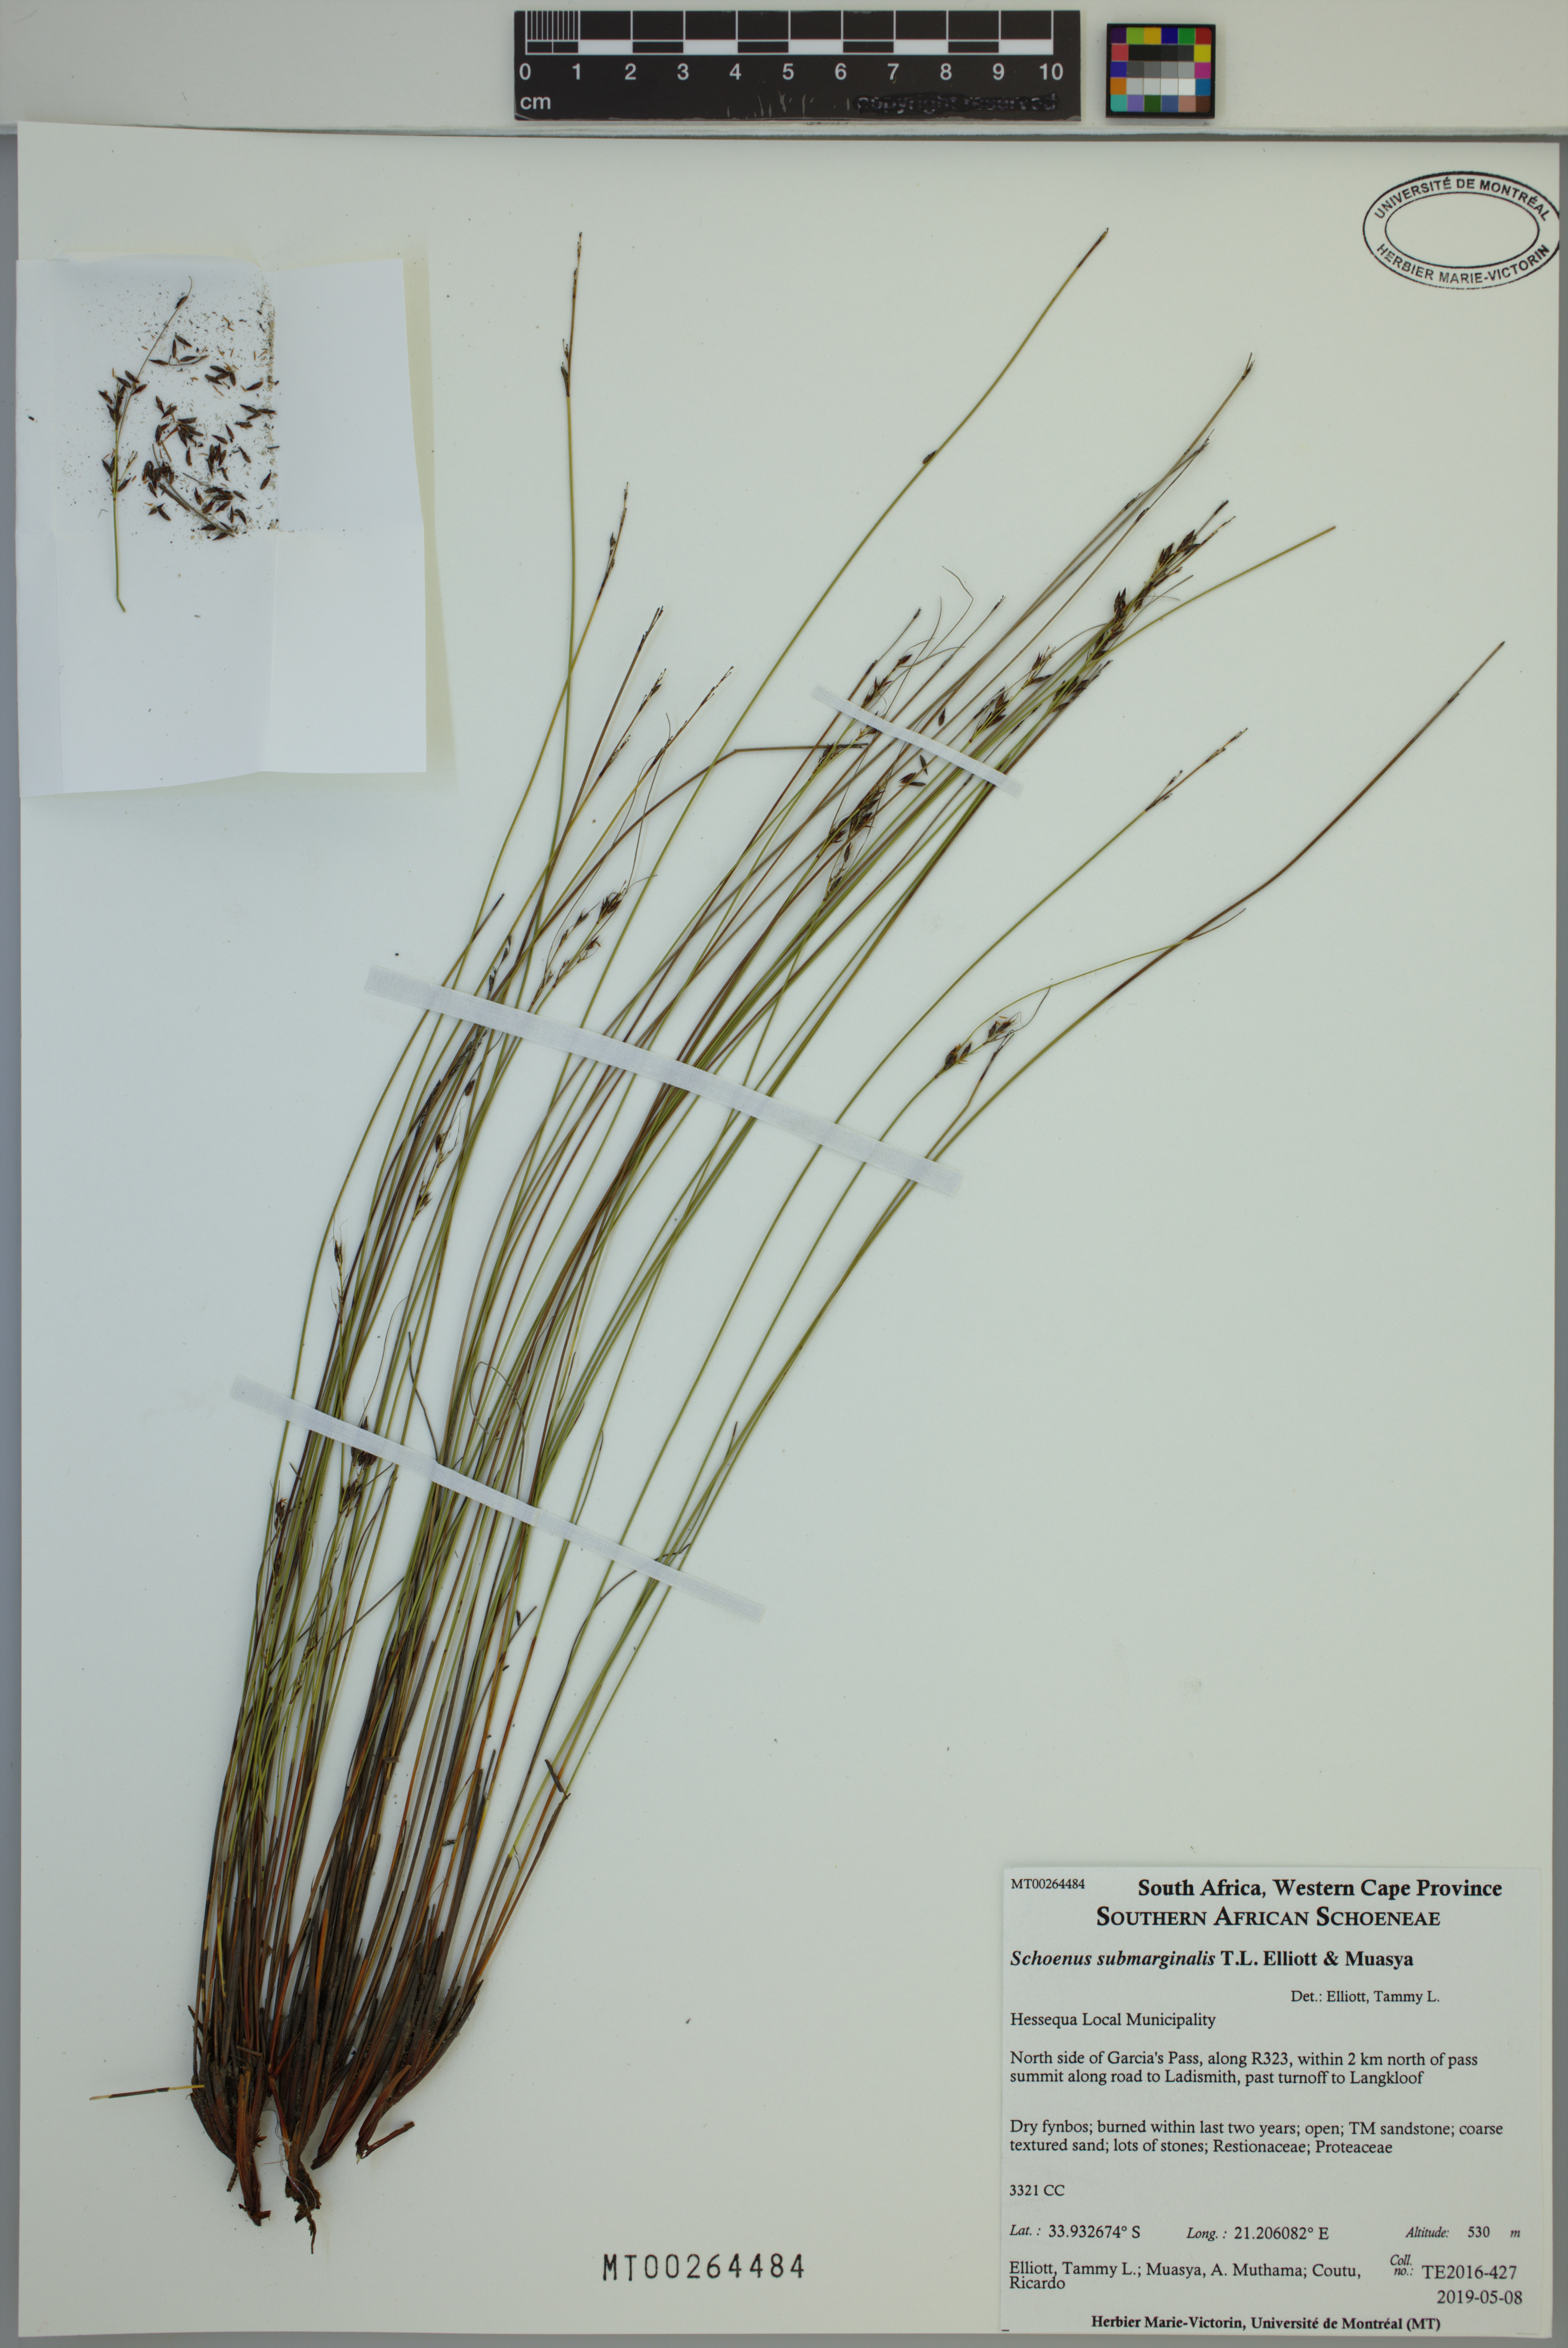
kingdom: Plantae
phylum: Tracheophyta
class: Liliopsida
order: Poales
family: Cyperaceae
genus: Schoenus
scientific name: Schoenus submarginalis
